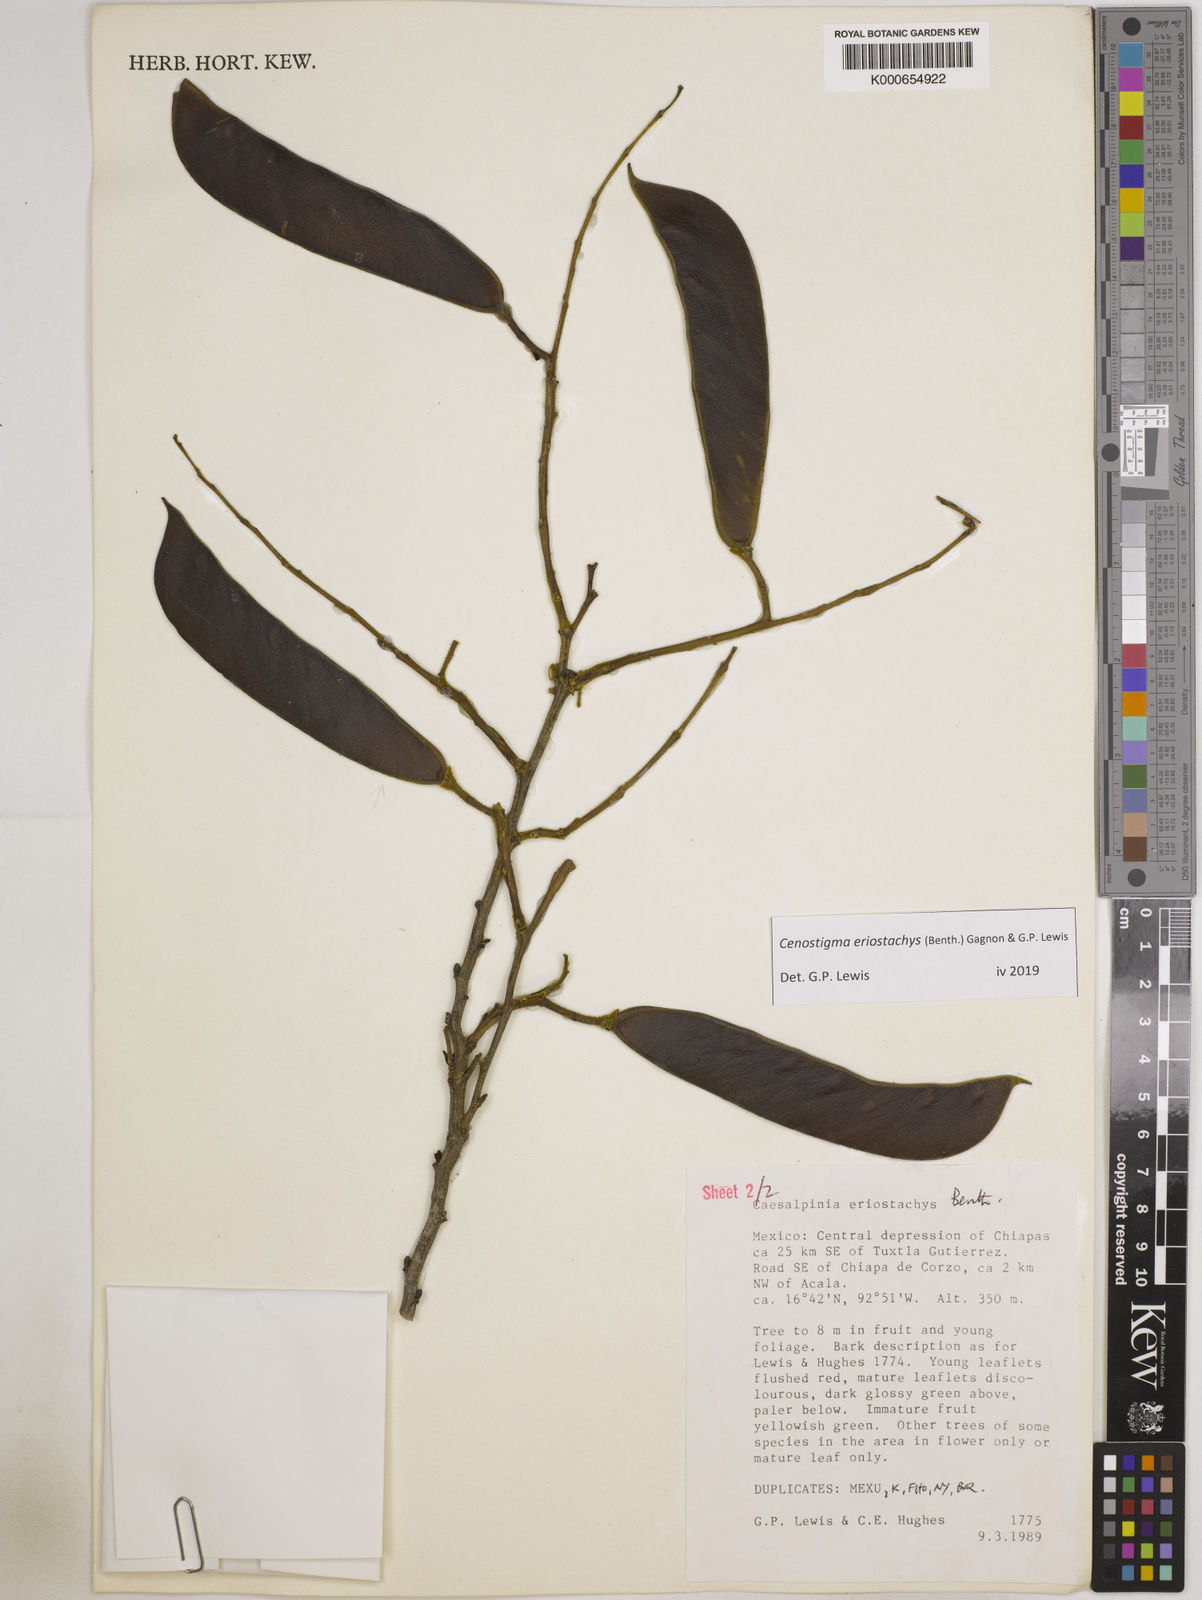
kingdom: Plantae
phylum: Tracheophyta
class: Magnoliopsida
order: Fabales
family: Fabaceae
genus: Cenostigma
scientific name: Cenostigma eriostachys
